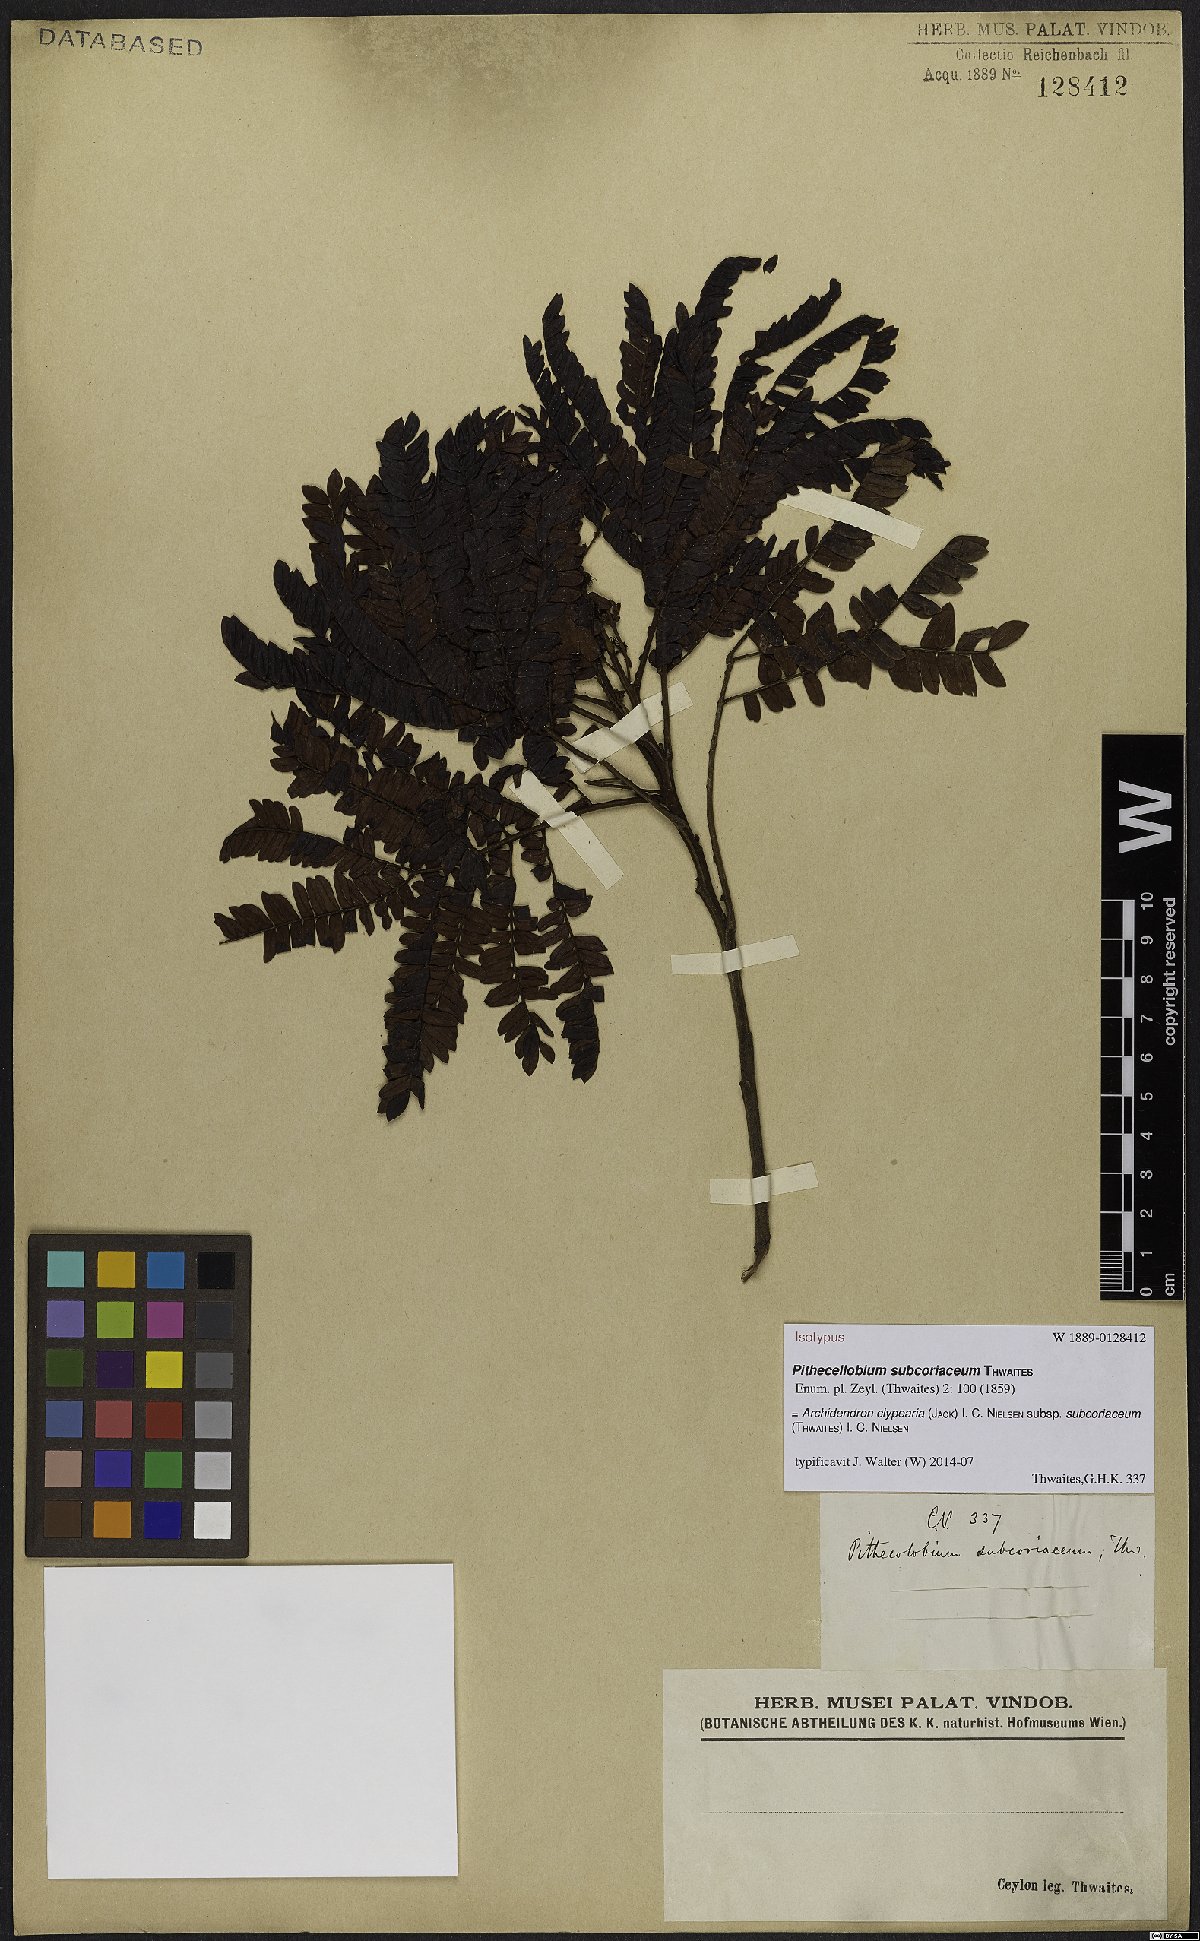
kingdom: Plantae
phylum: Tracheophyta
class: Magnoliopsida
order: Fabales
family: Fabaceae
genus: Archidendron
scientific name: Archidendron clypearia
